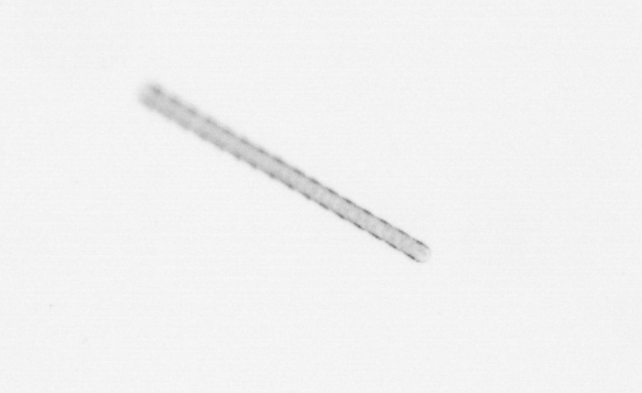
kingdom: Chromista
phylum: Ochrophyta
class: Bacillariophyceae
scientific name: Bacillariophyceae
